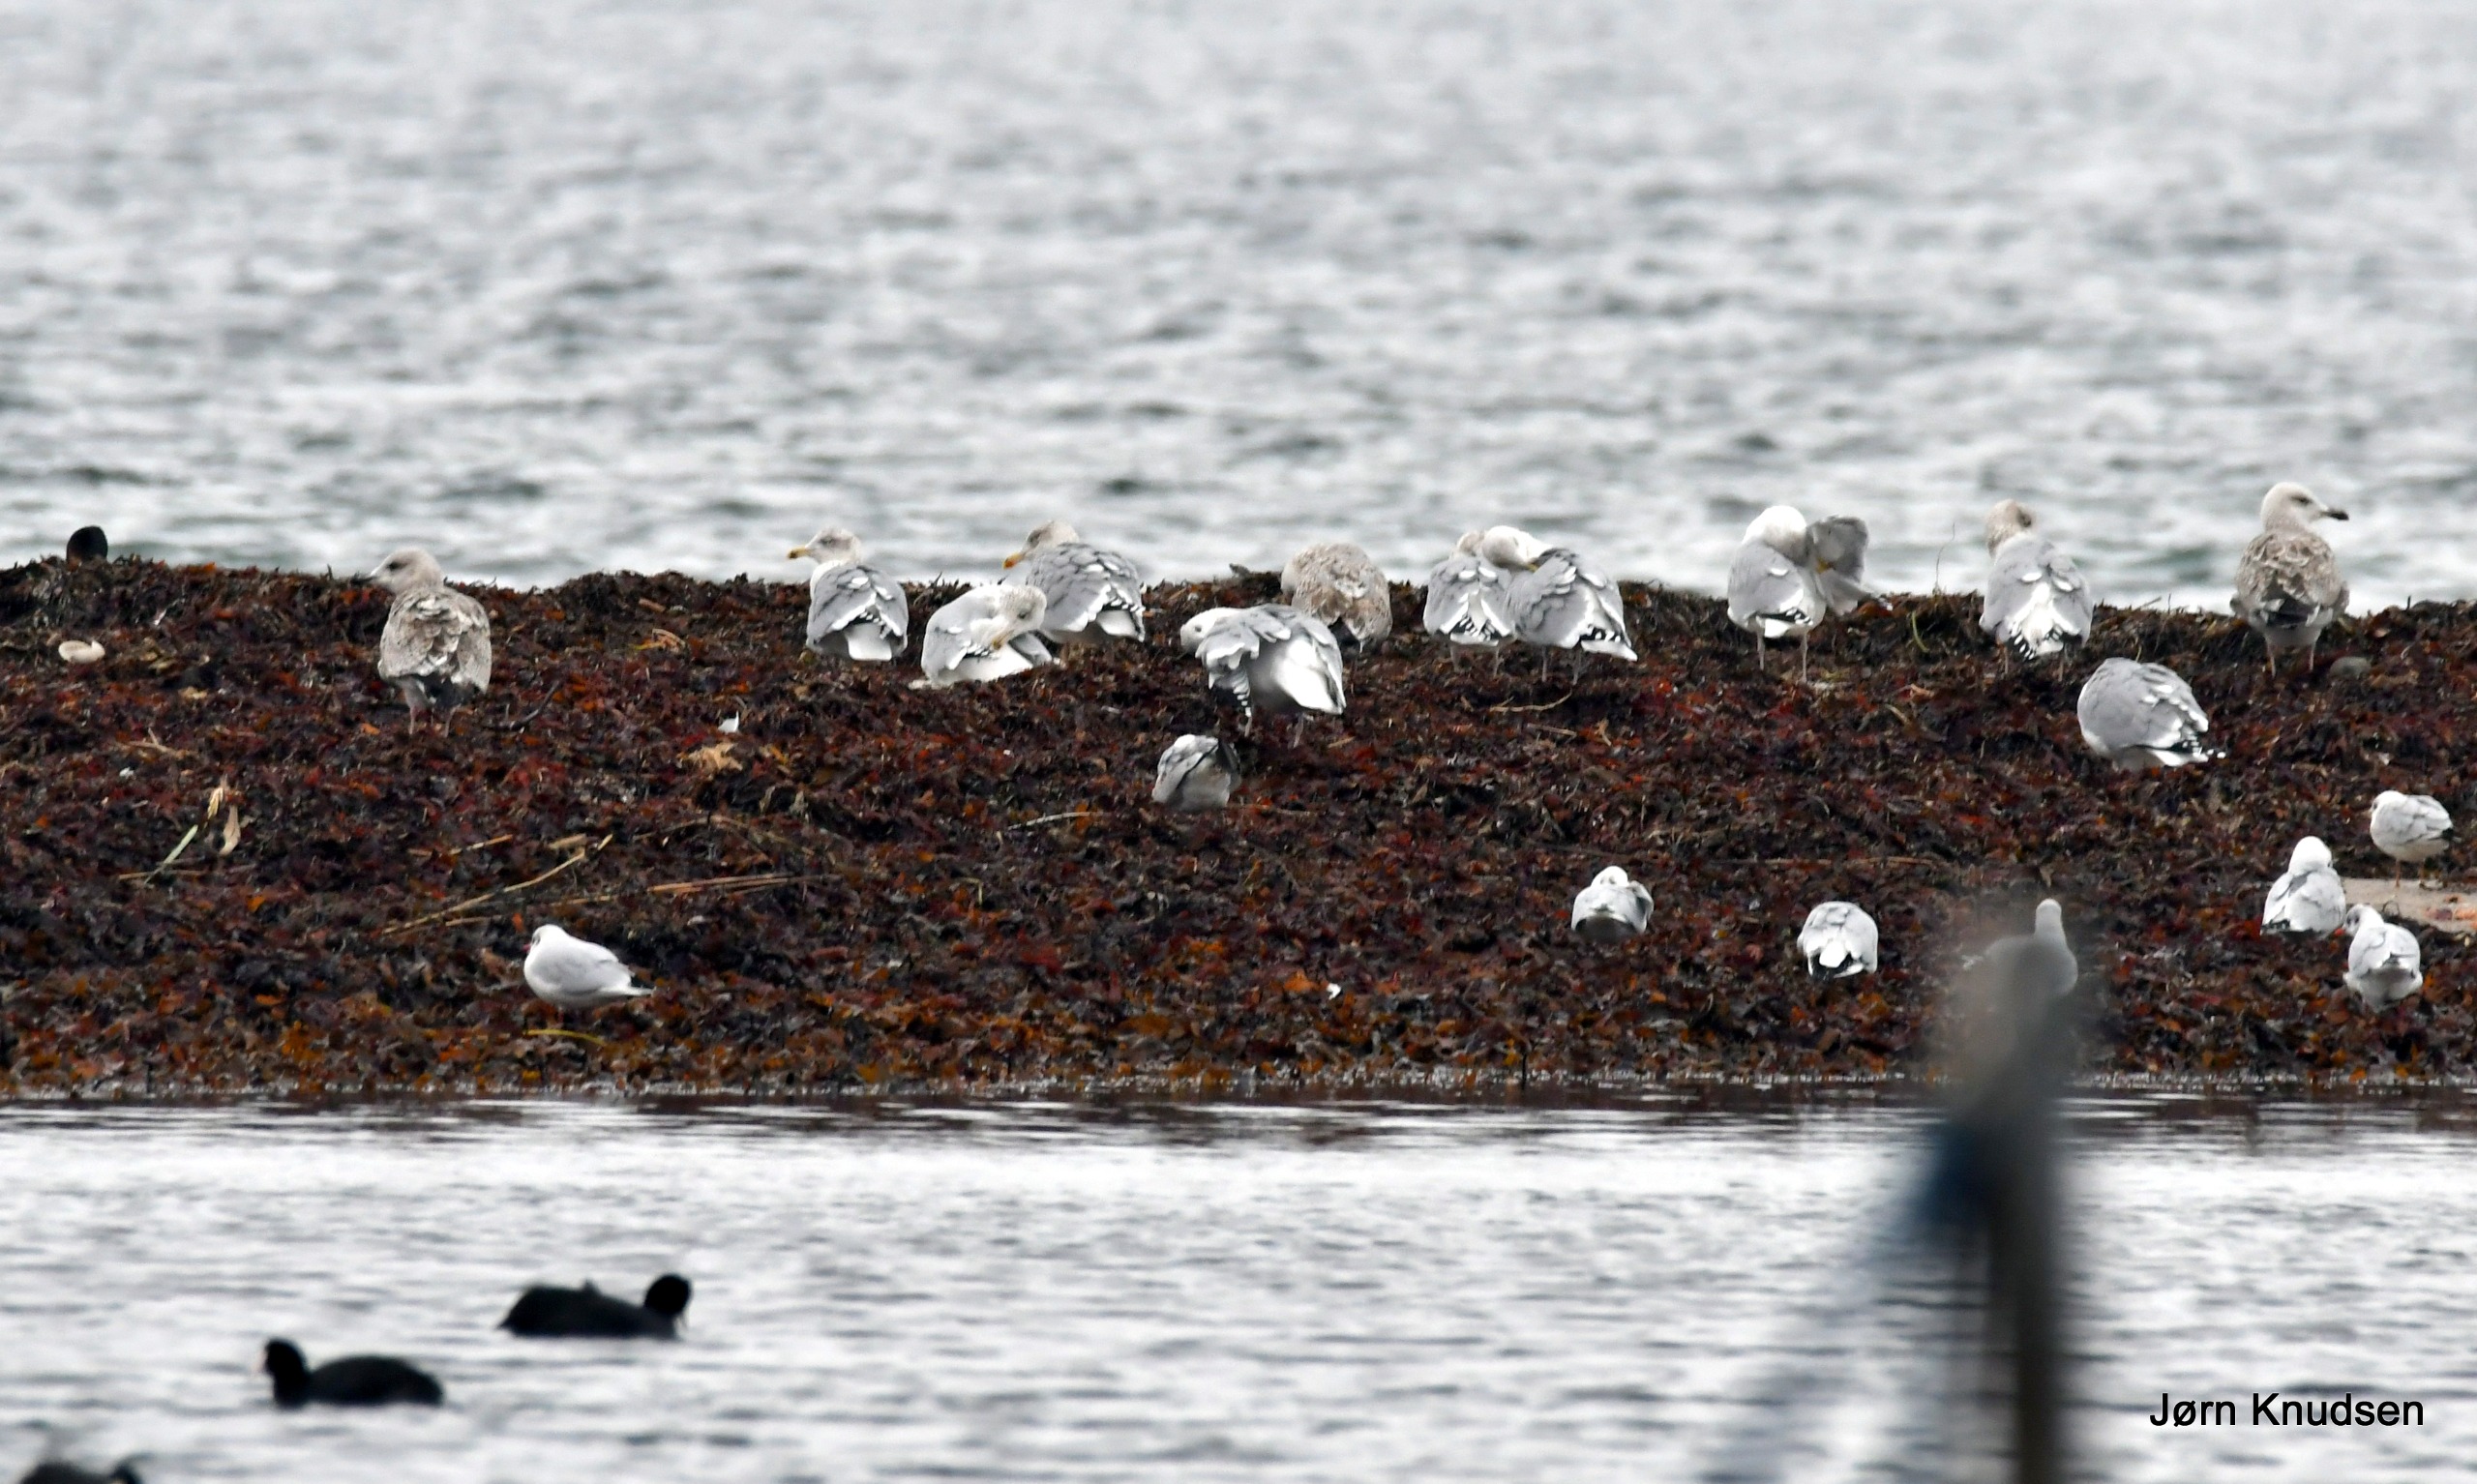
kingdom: Animalia
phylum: Chordata
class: Aves
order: Charadriiformes
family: Laridae
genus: Larus
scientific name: Larus argentatus
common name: Sølvmåge
